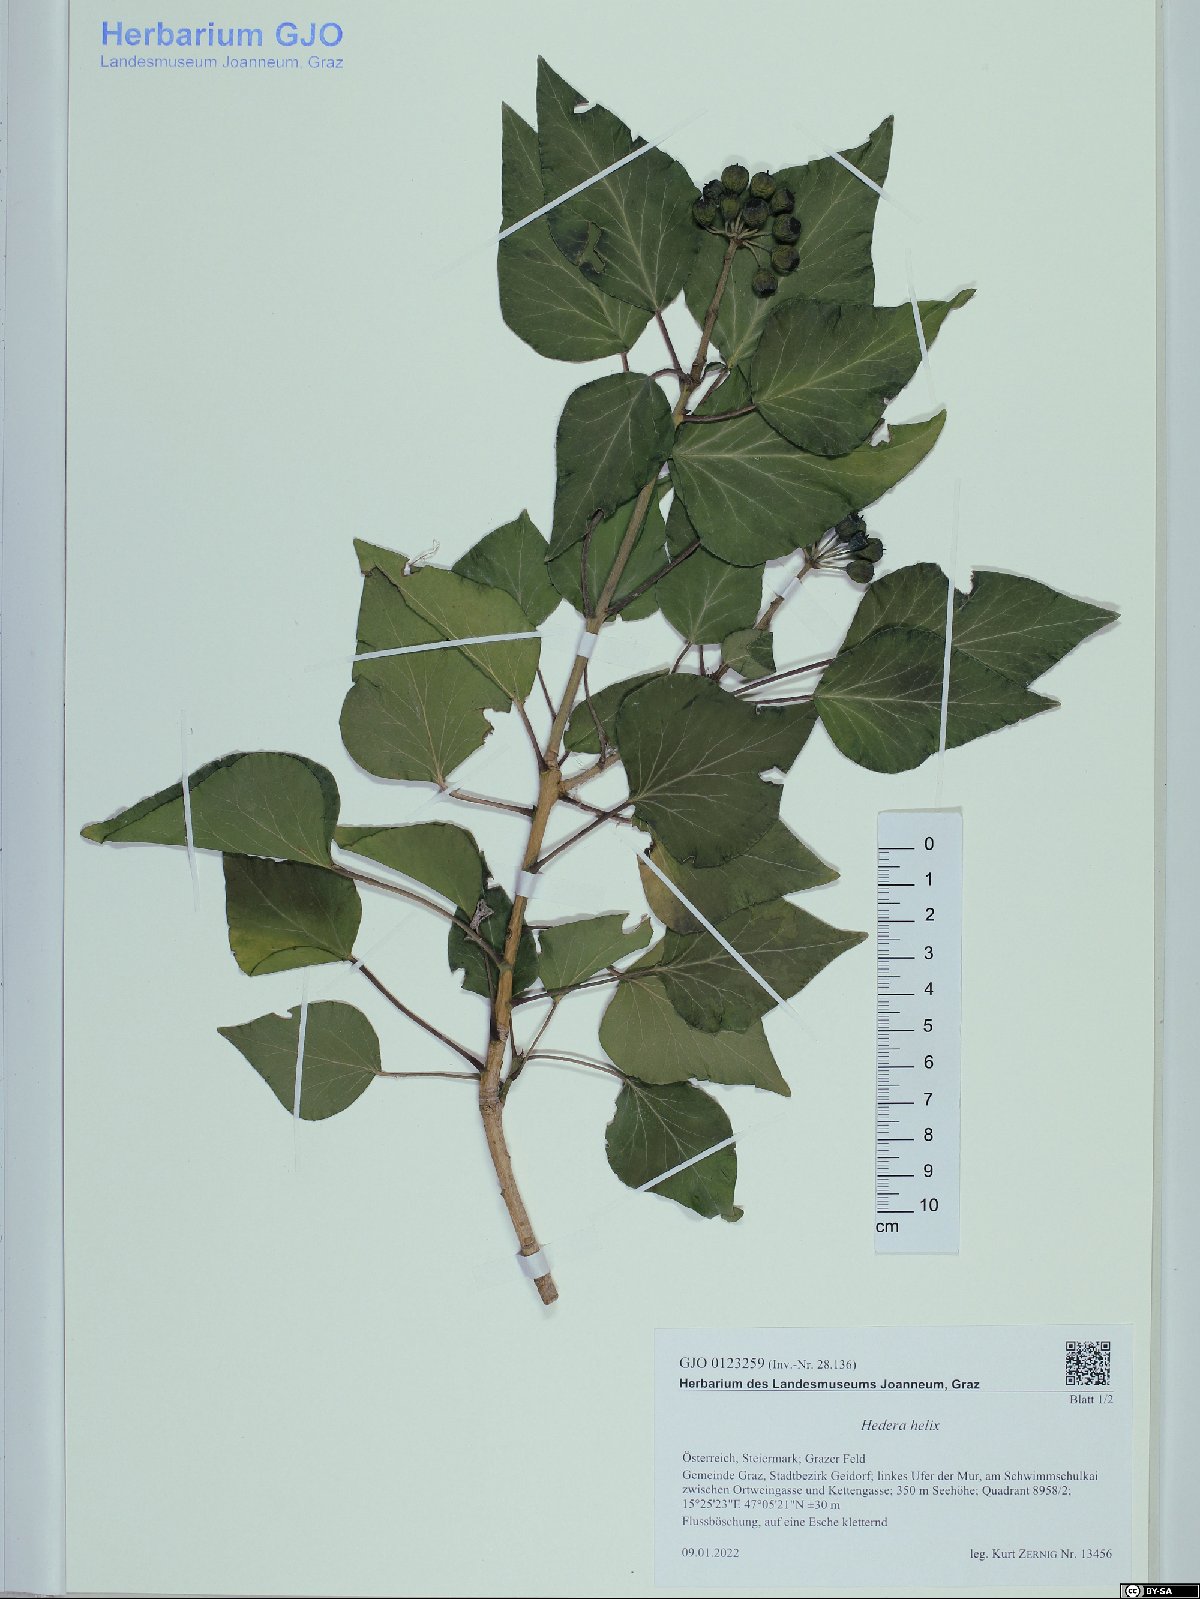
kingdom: Plantae
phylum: Tracheophyta
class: Magnoliopsida
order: Apiales
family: Araliaceae
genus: Hedera
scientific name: Hedera helix
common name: Ivy
